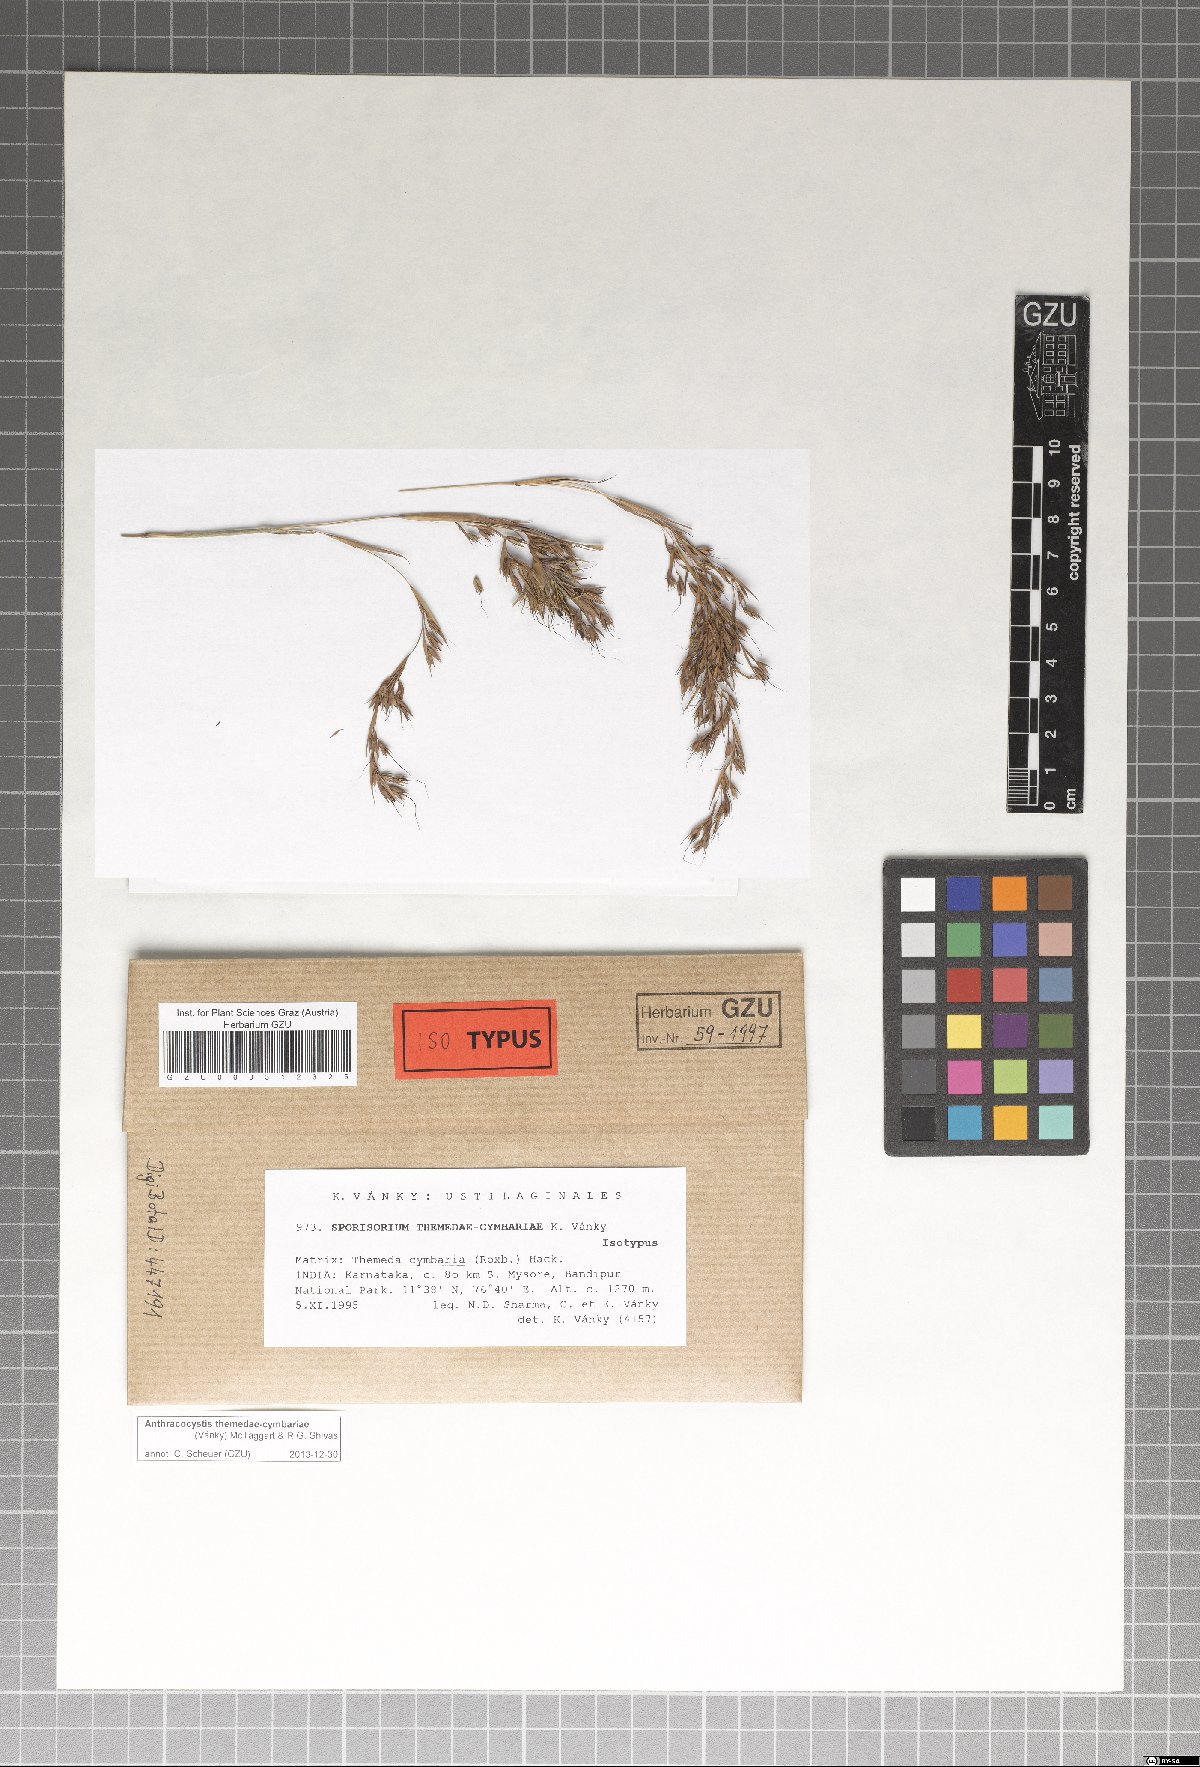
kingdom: Fungi
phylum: Basidiomycota
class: Ustilaginomycetes
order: Ustilaginales
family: Ustilaginaceae
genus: Anthracocystis
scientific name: Anthracocystis themedae-cymbariae
